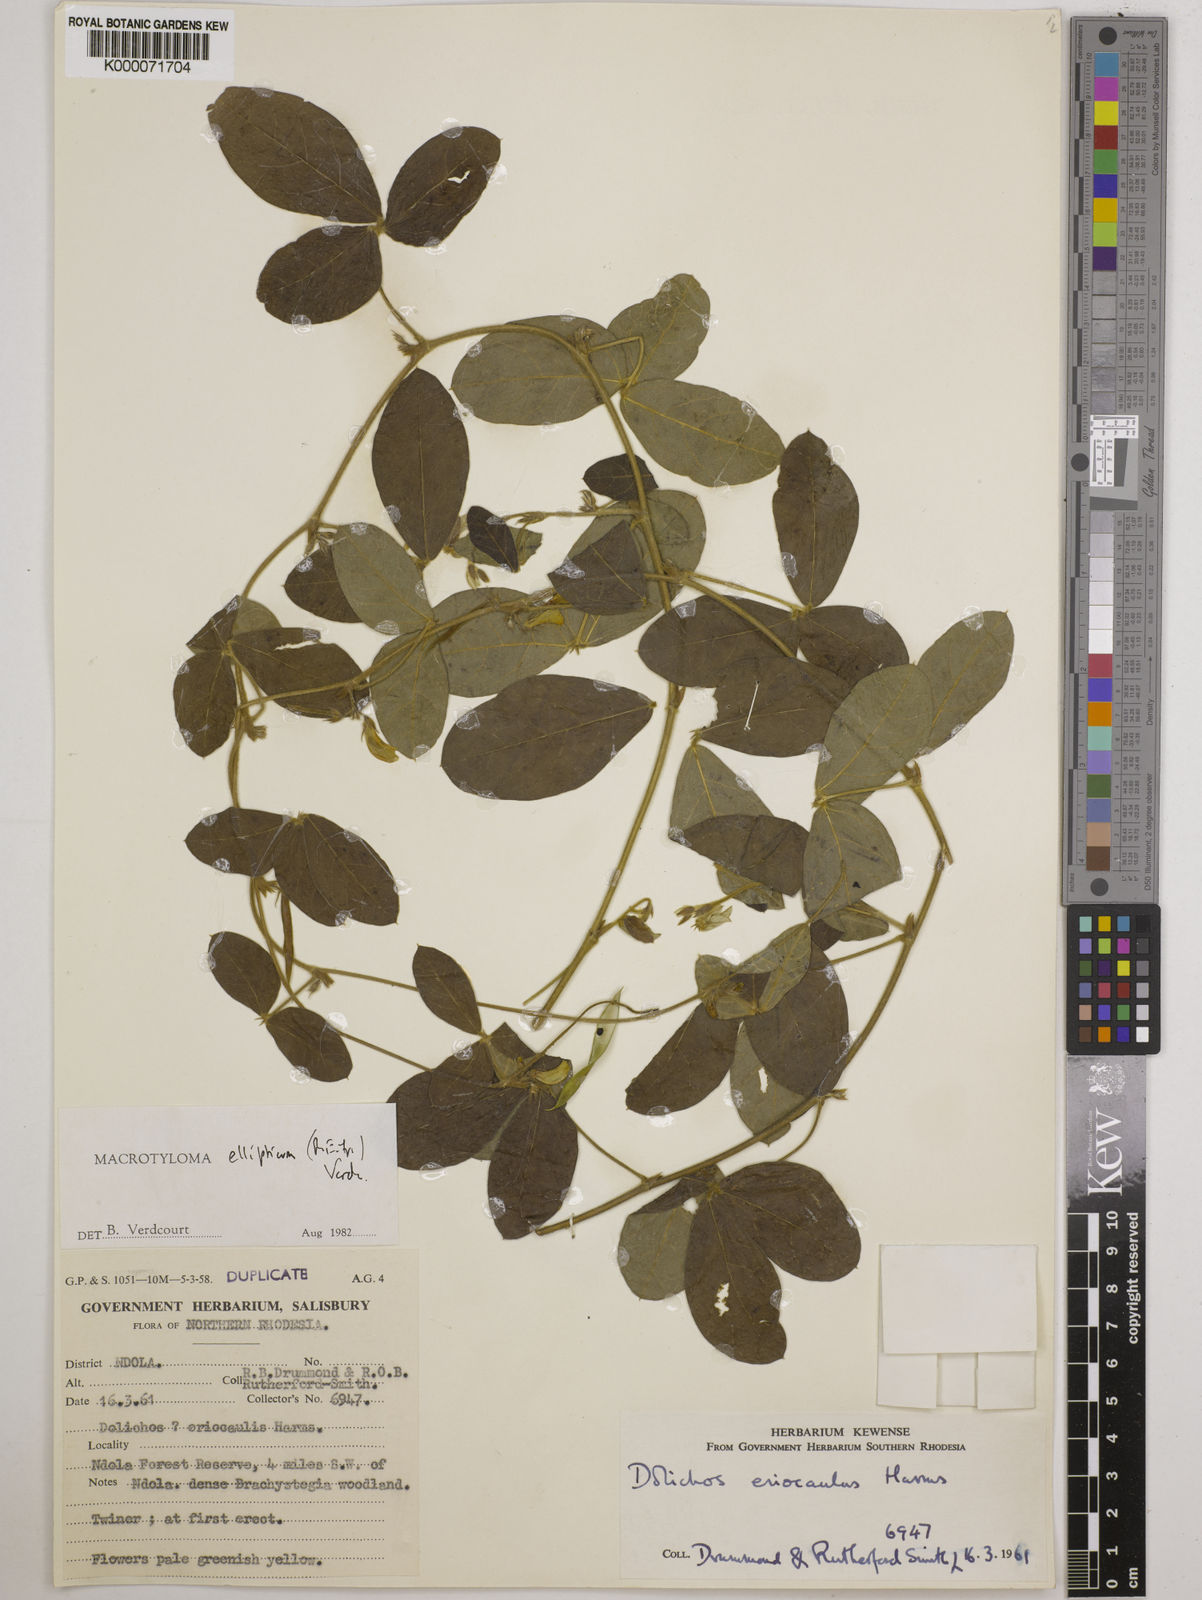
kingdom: Plantae
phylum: Tracheophyta
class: Magnoliopsida
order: Fabales
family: Fabaceae
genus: Macrotyloma
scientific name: Macrotyloma ellipticum
